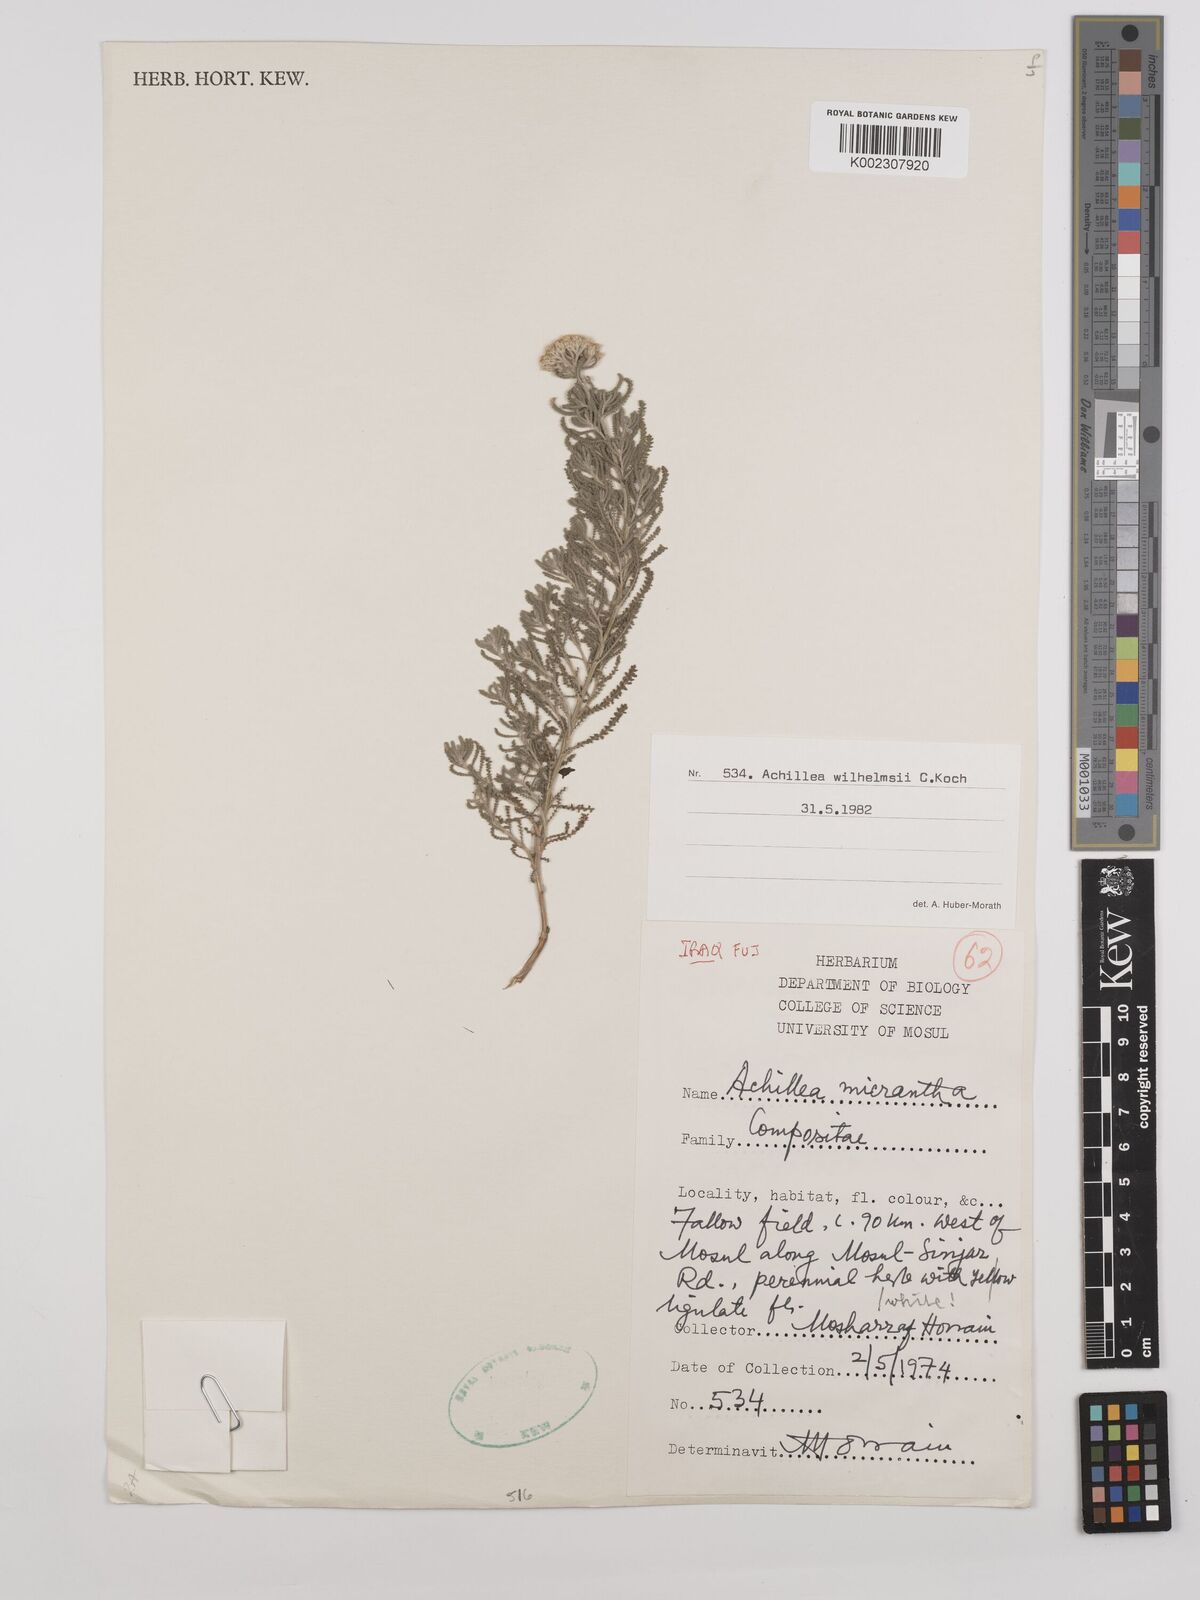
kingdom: Plantae
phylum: Tracheophyta
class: Magnoliopsida
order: Asterales
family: Asteraceae
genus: Achillea
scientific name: Achillea wilhelmsii
